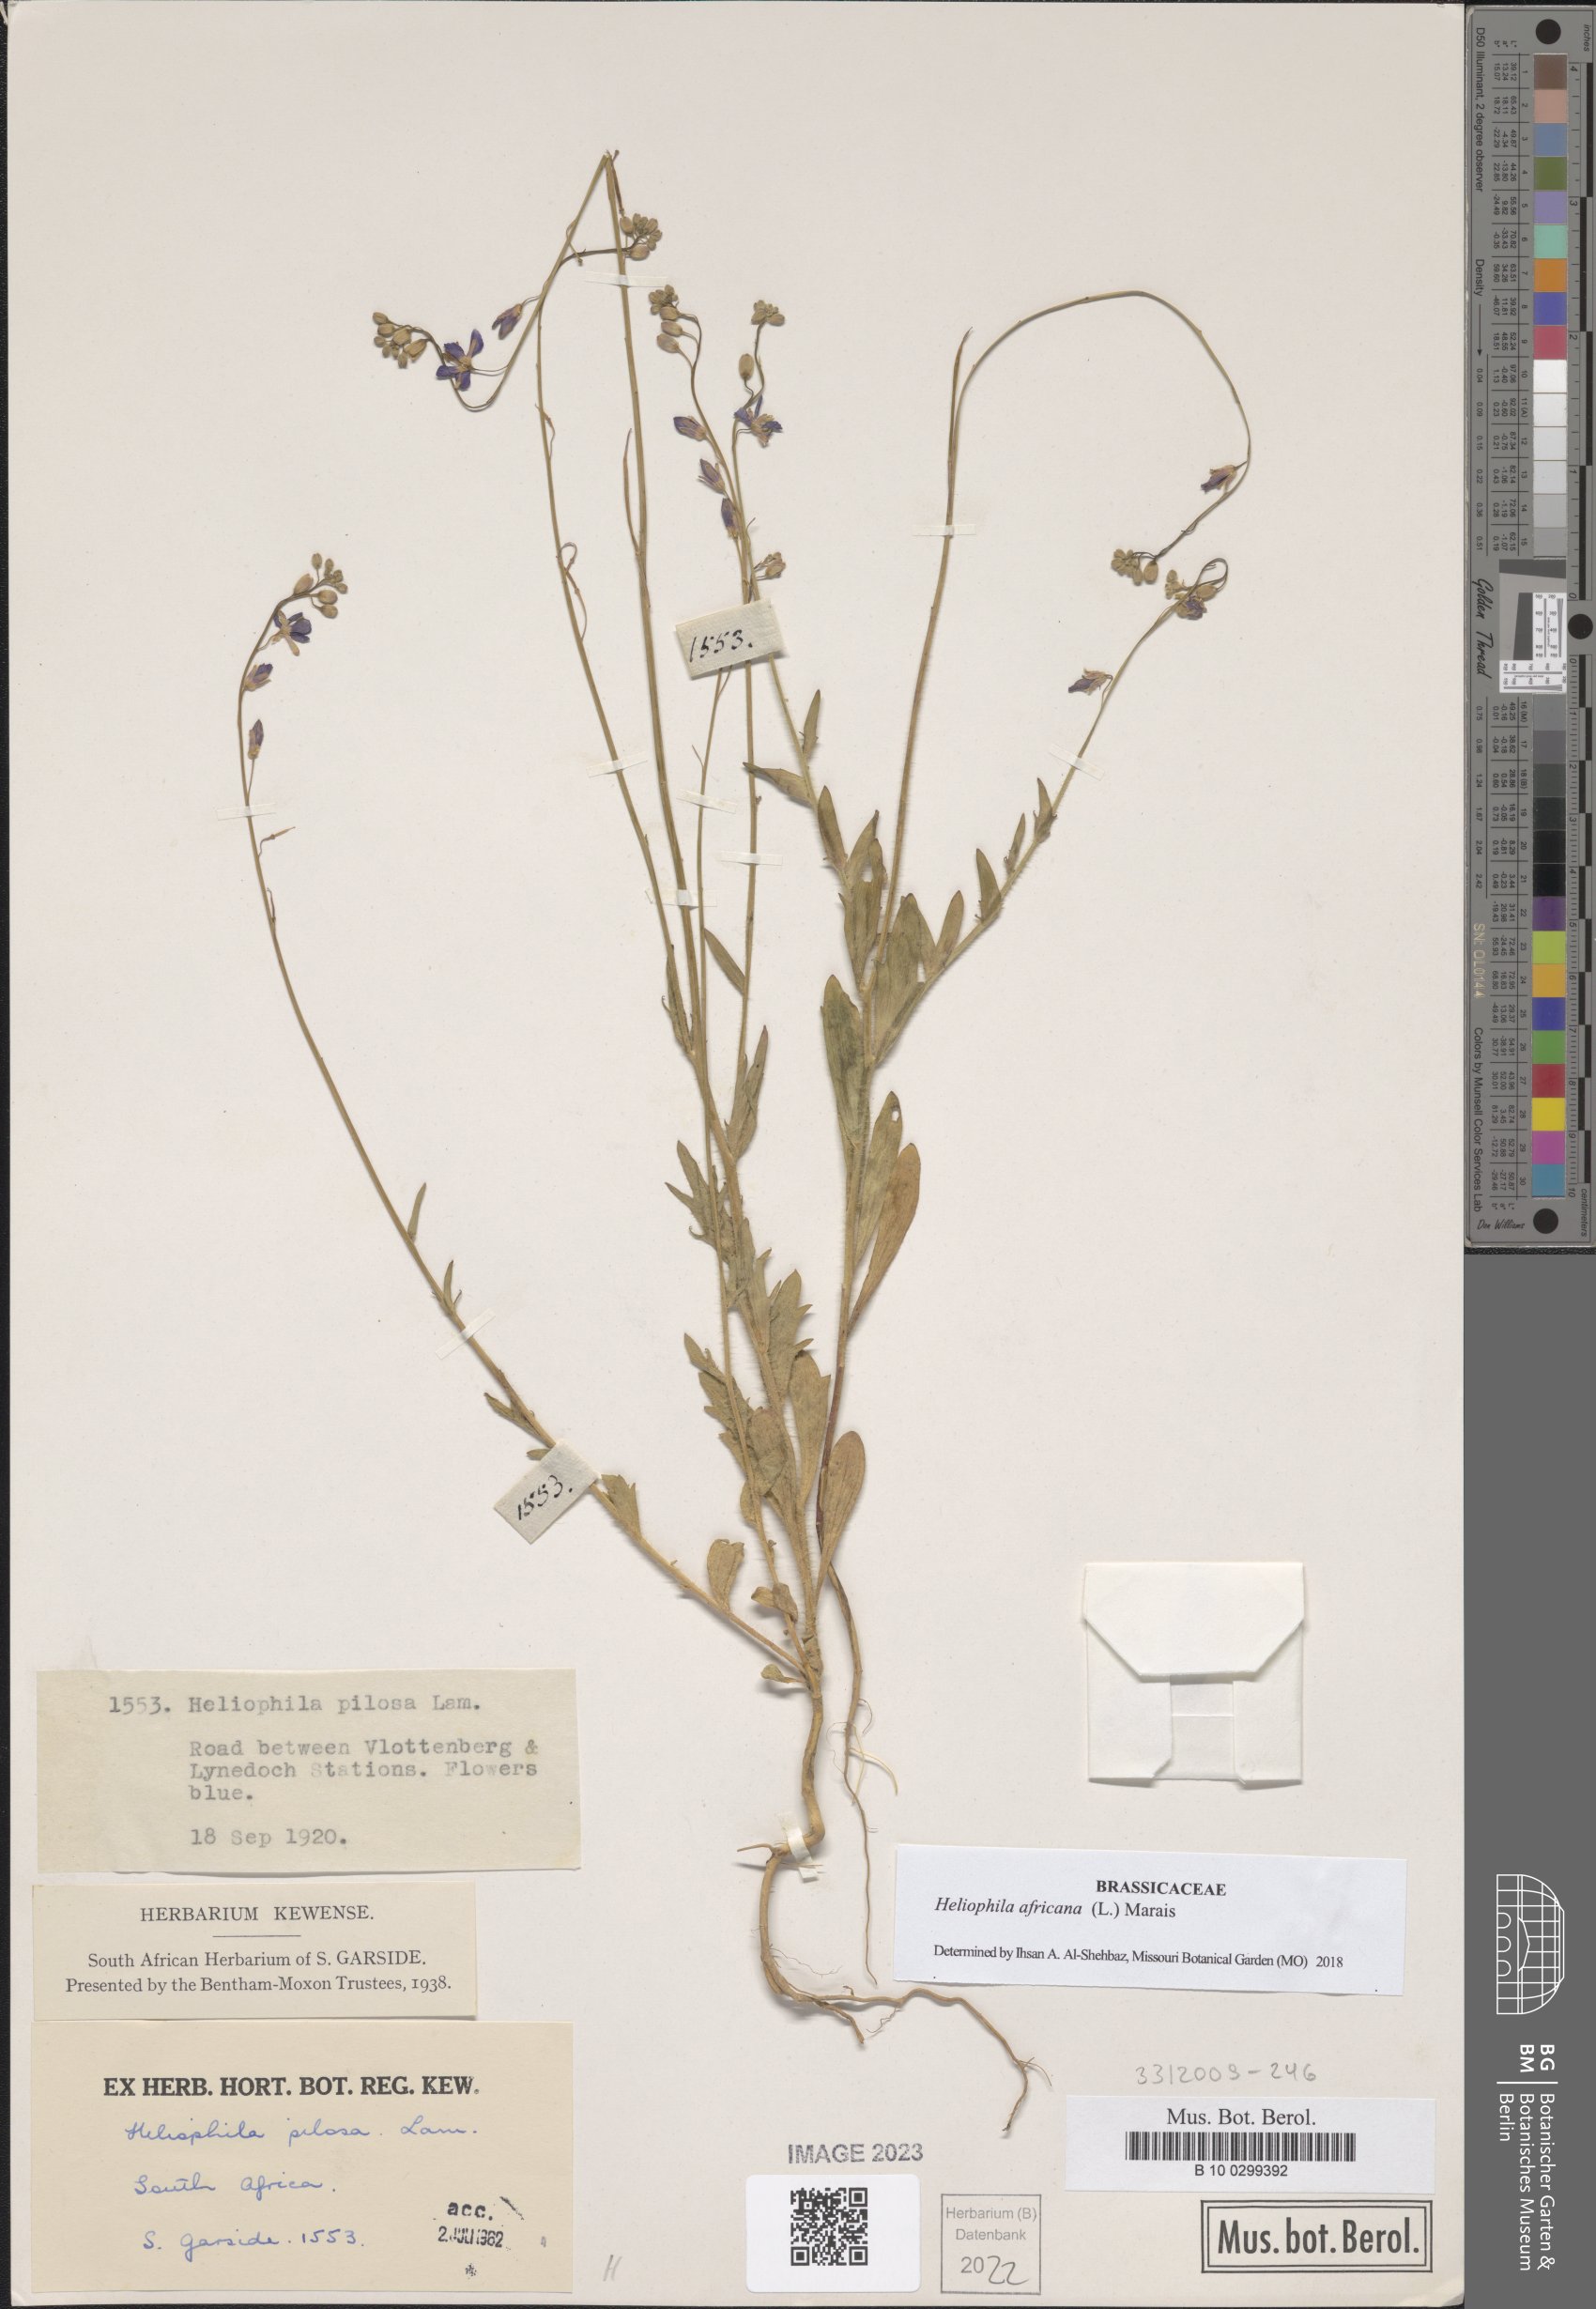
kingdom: Plantae
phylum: Tracheophyta
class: Magnoliopsida
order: Brassicales
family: Brassicaceae
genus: Heliophila
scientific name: Heliophila africana
